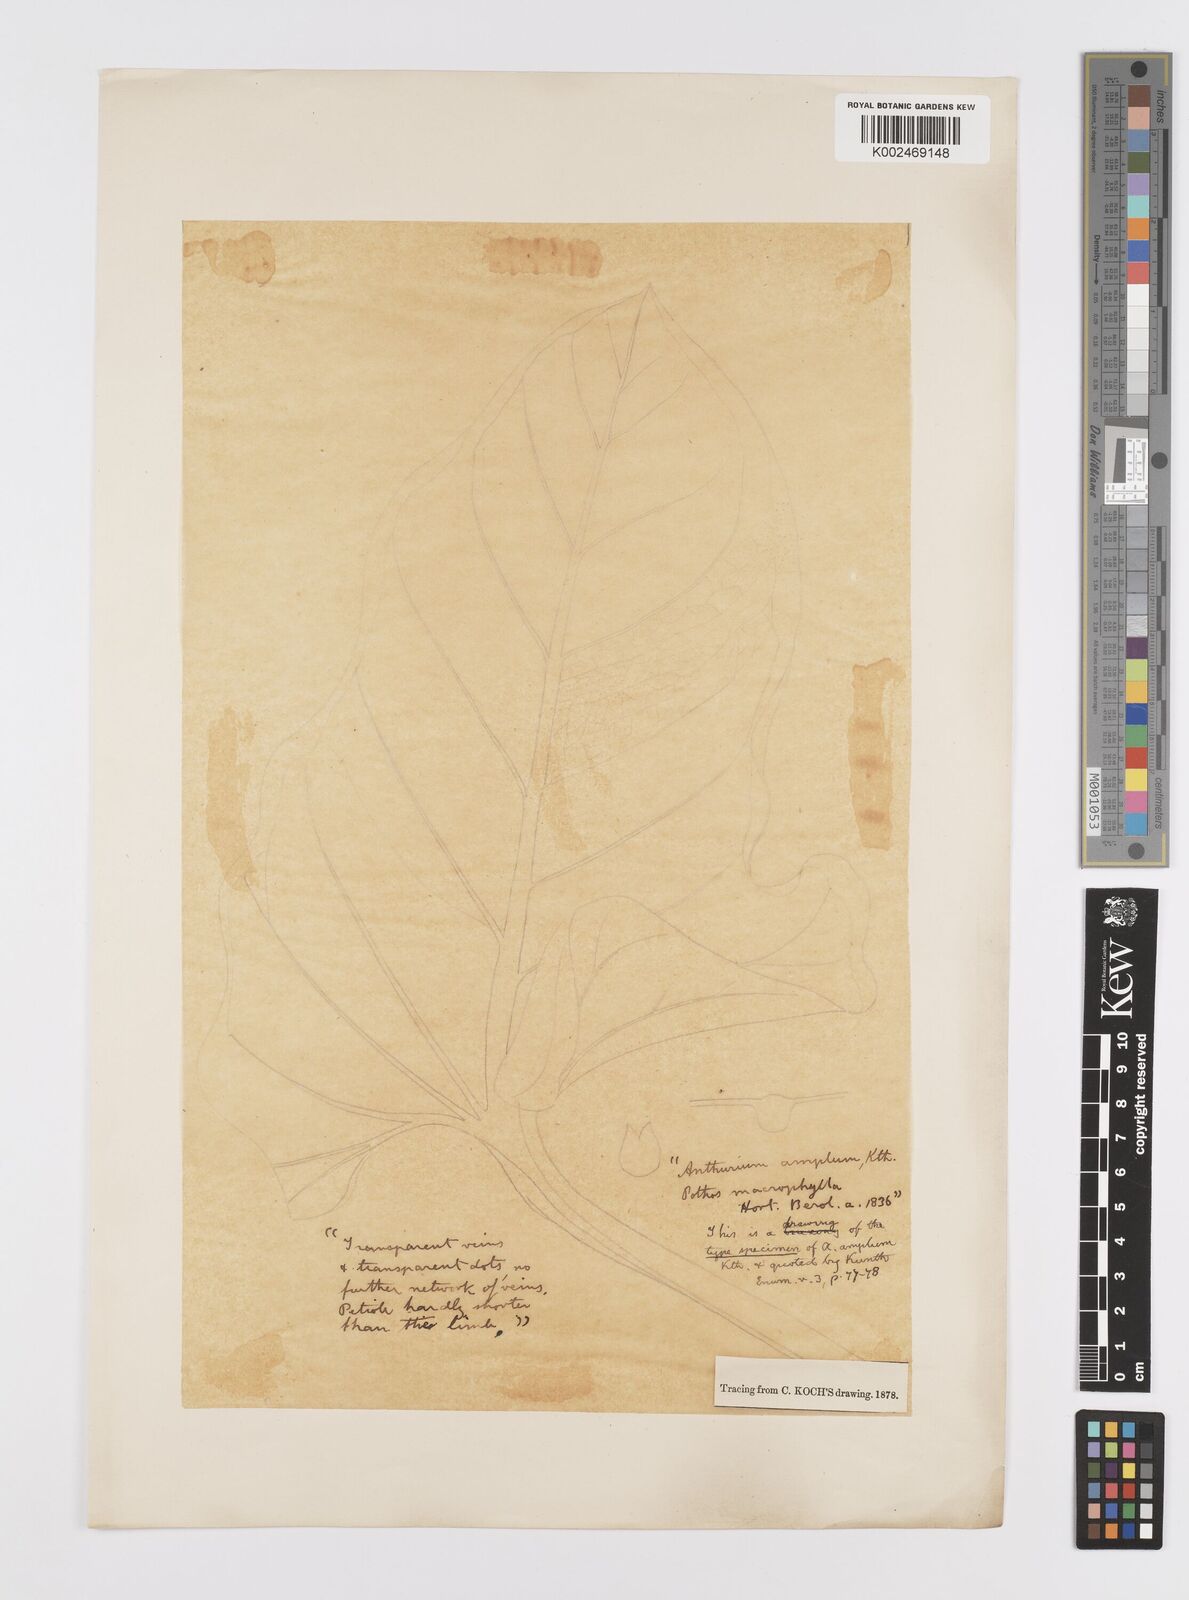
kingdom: Plantae
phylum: Tracheophyta
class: Liliopsida
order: Alismatales
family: Araceae
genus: Anthurium
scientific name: Anthurium grandifolium
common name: Monkey tail
